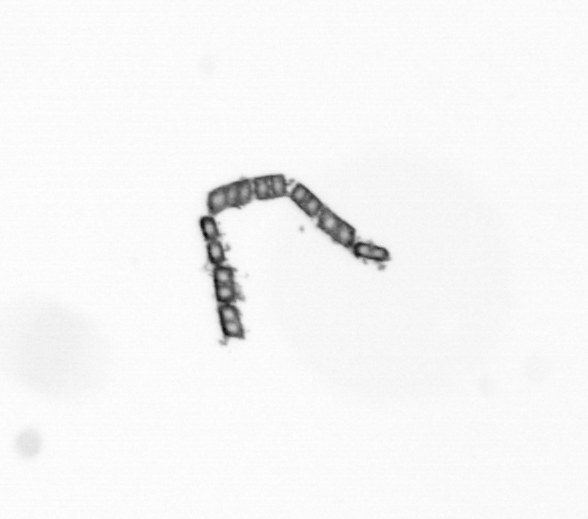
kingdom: Chromista
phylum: Ochrophyta
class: Bacillariophyceae
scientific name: Bacillariophyceae
